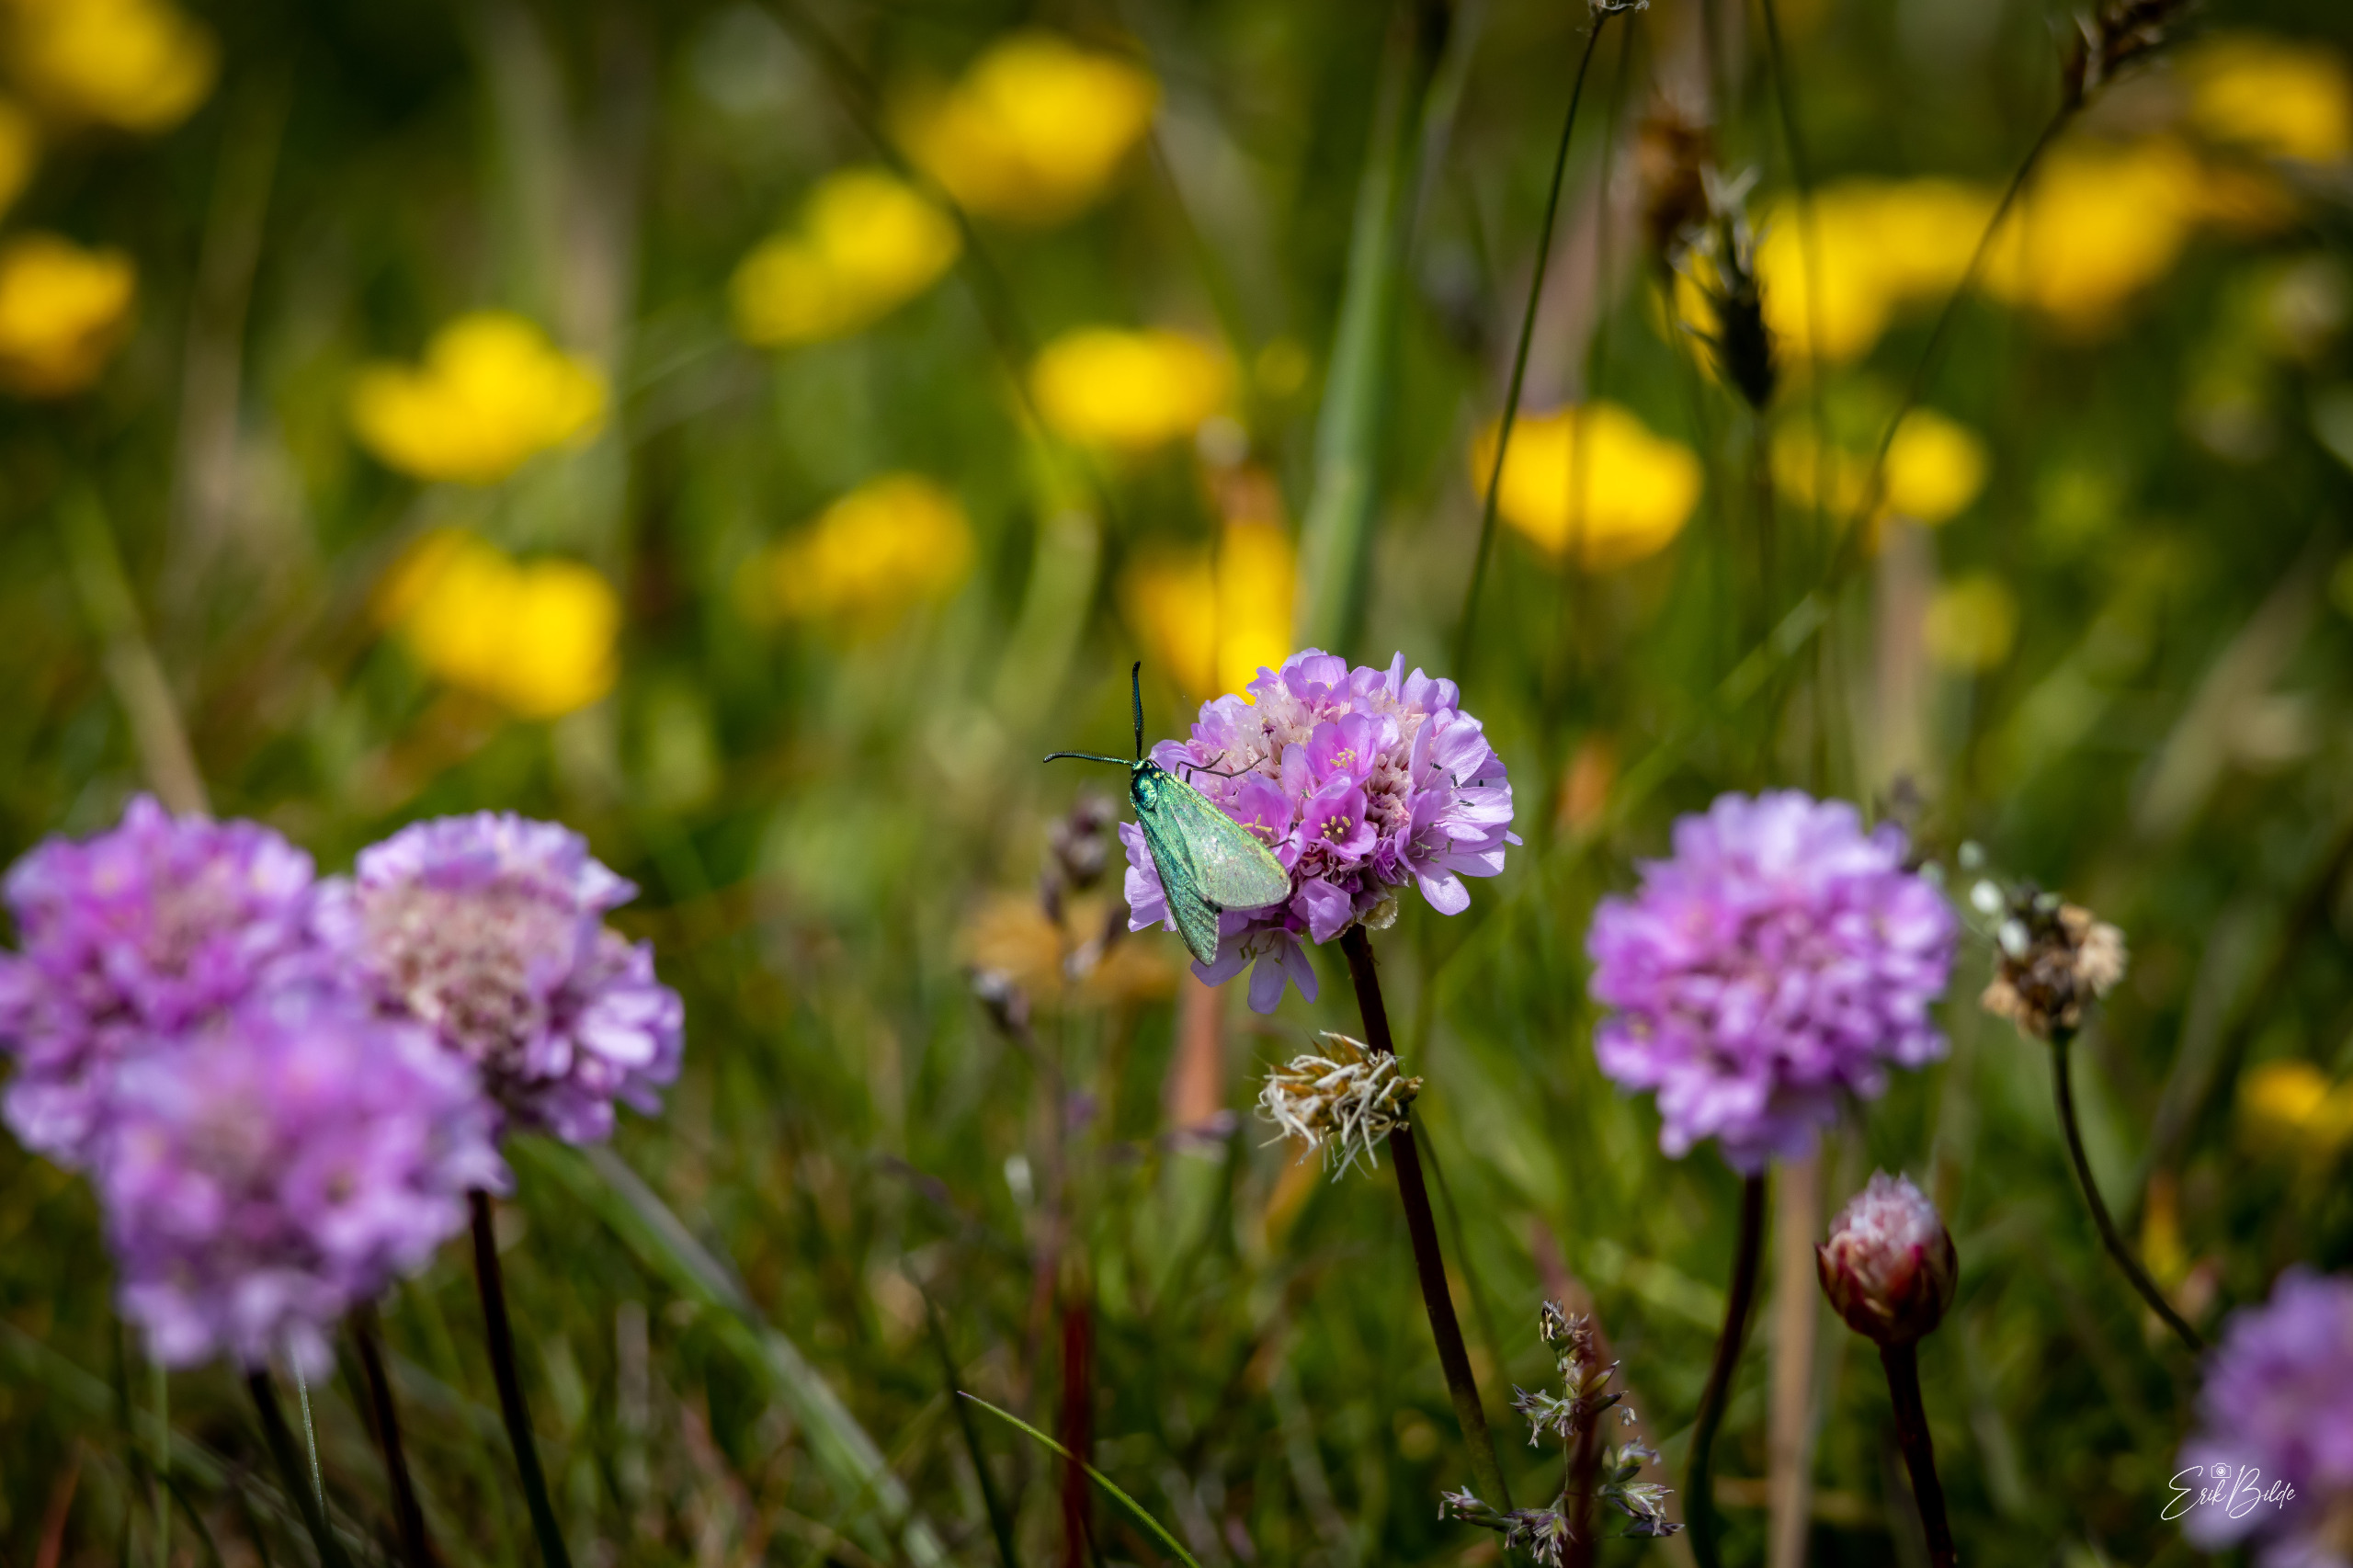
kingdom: Animalia
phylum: Arthropoda
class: Insecta
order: Lepidoptera
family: Zygaenidae
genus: Adscita
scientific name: Adscita statices
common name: Metalvinge
